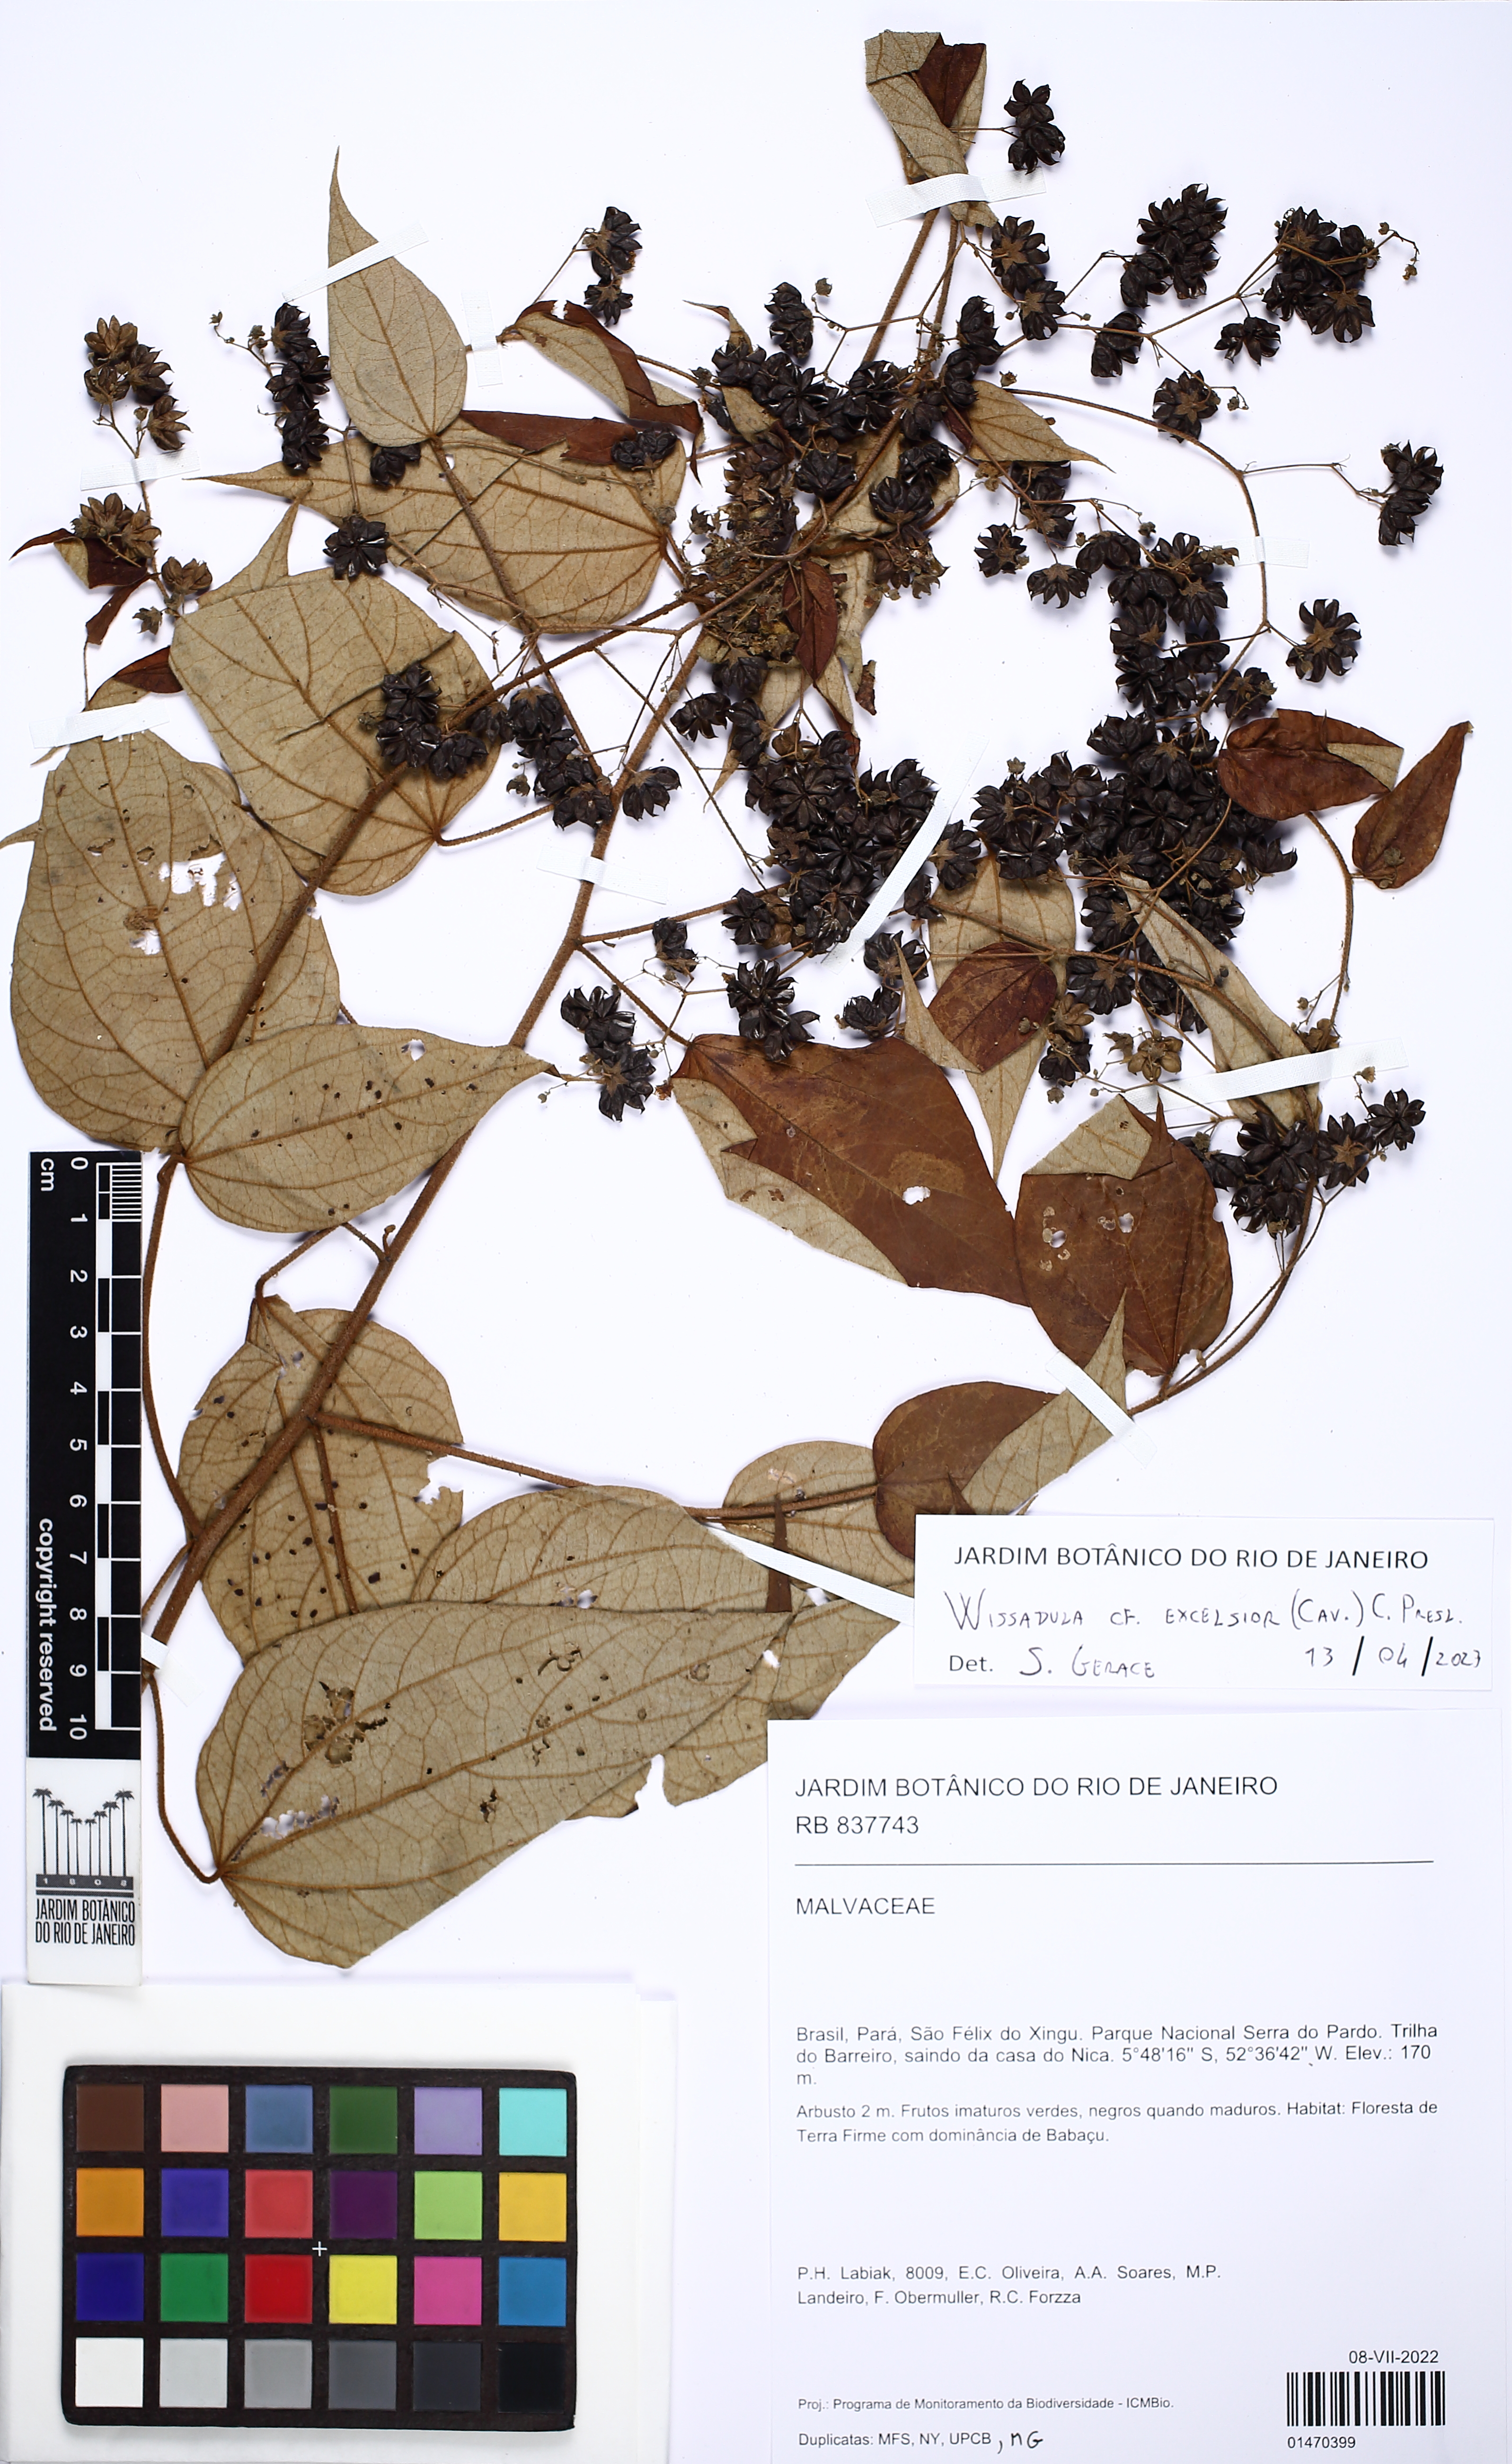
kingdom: Plantae
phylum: Tracheophyta
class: Magnoliopsida
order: Malvales
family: Malvaceae
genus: Wissadula
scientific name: Wissadula excelsior
